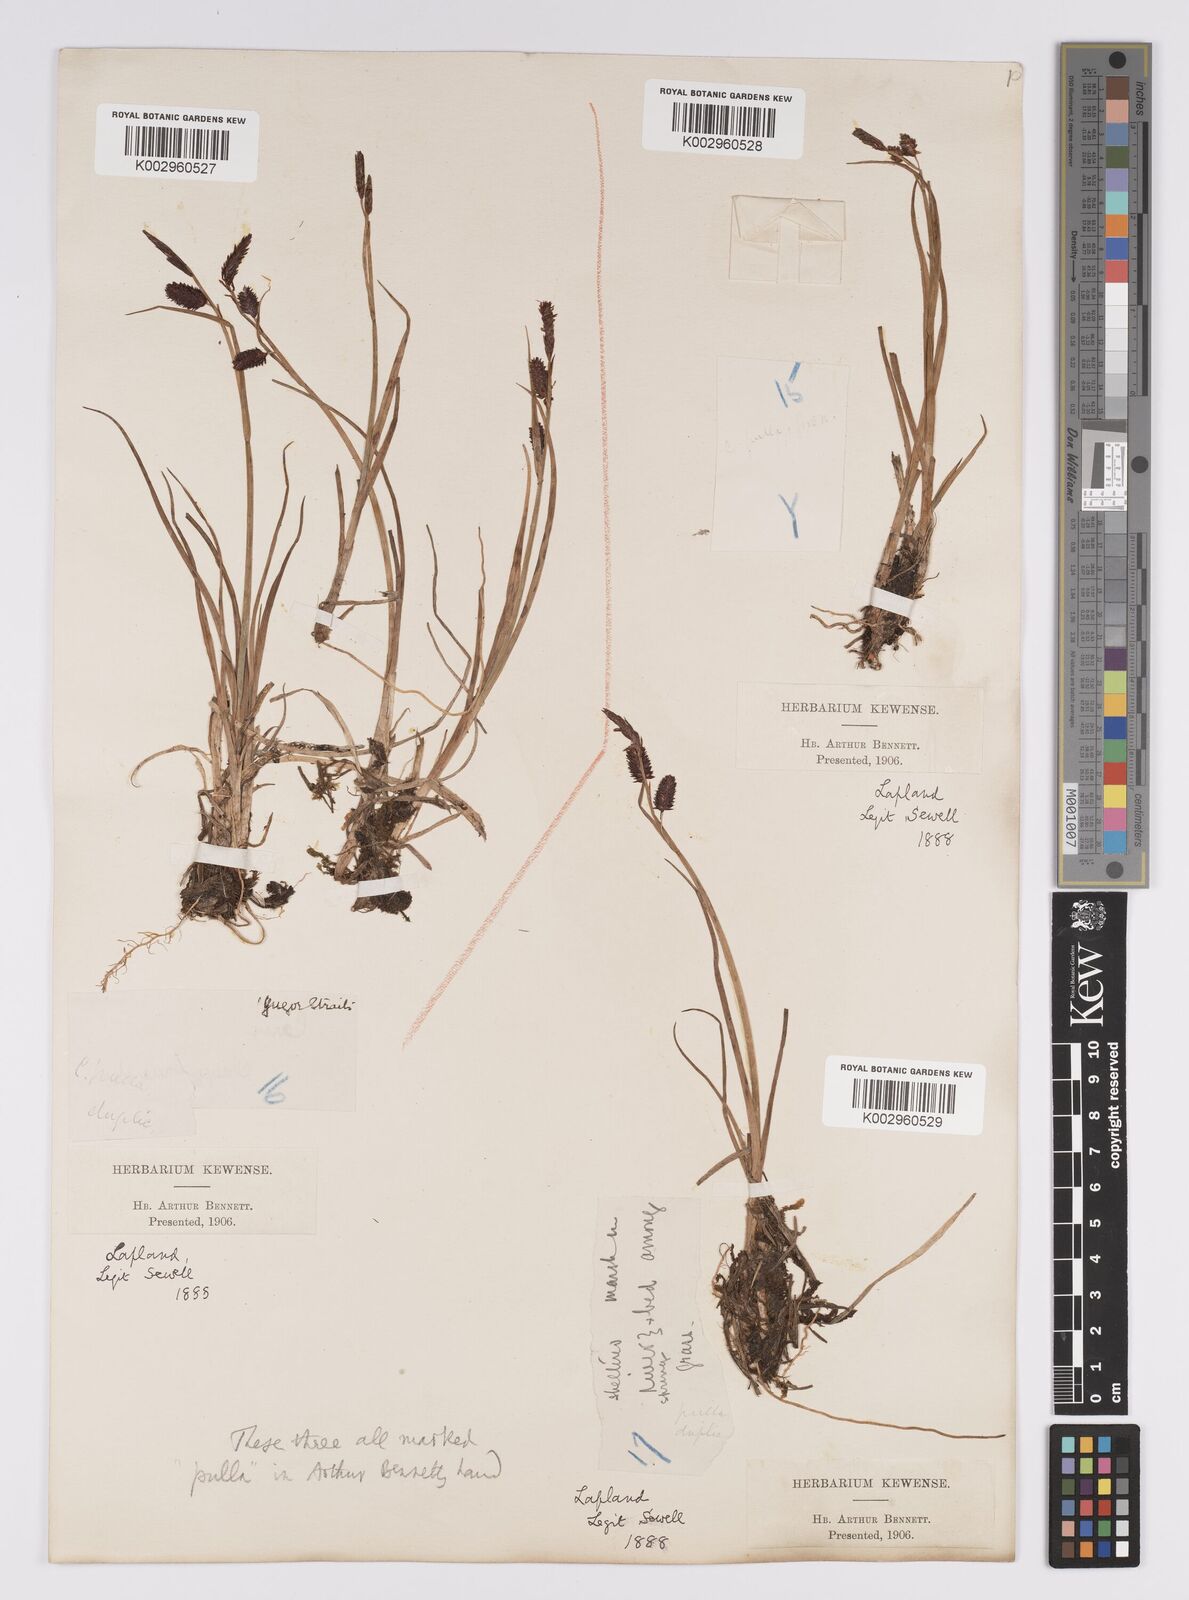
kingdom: Plantae
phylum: Tracheophyta
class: Liliopsida
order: Poales
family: Cyperaceae
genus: Carex
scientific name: Carex saxatilis
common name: Russet sedge
